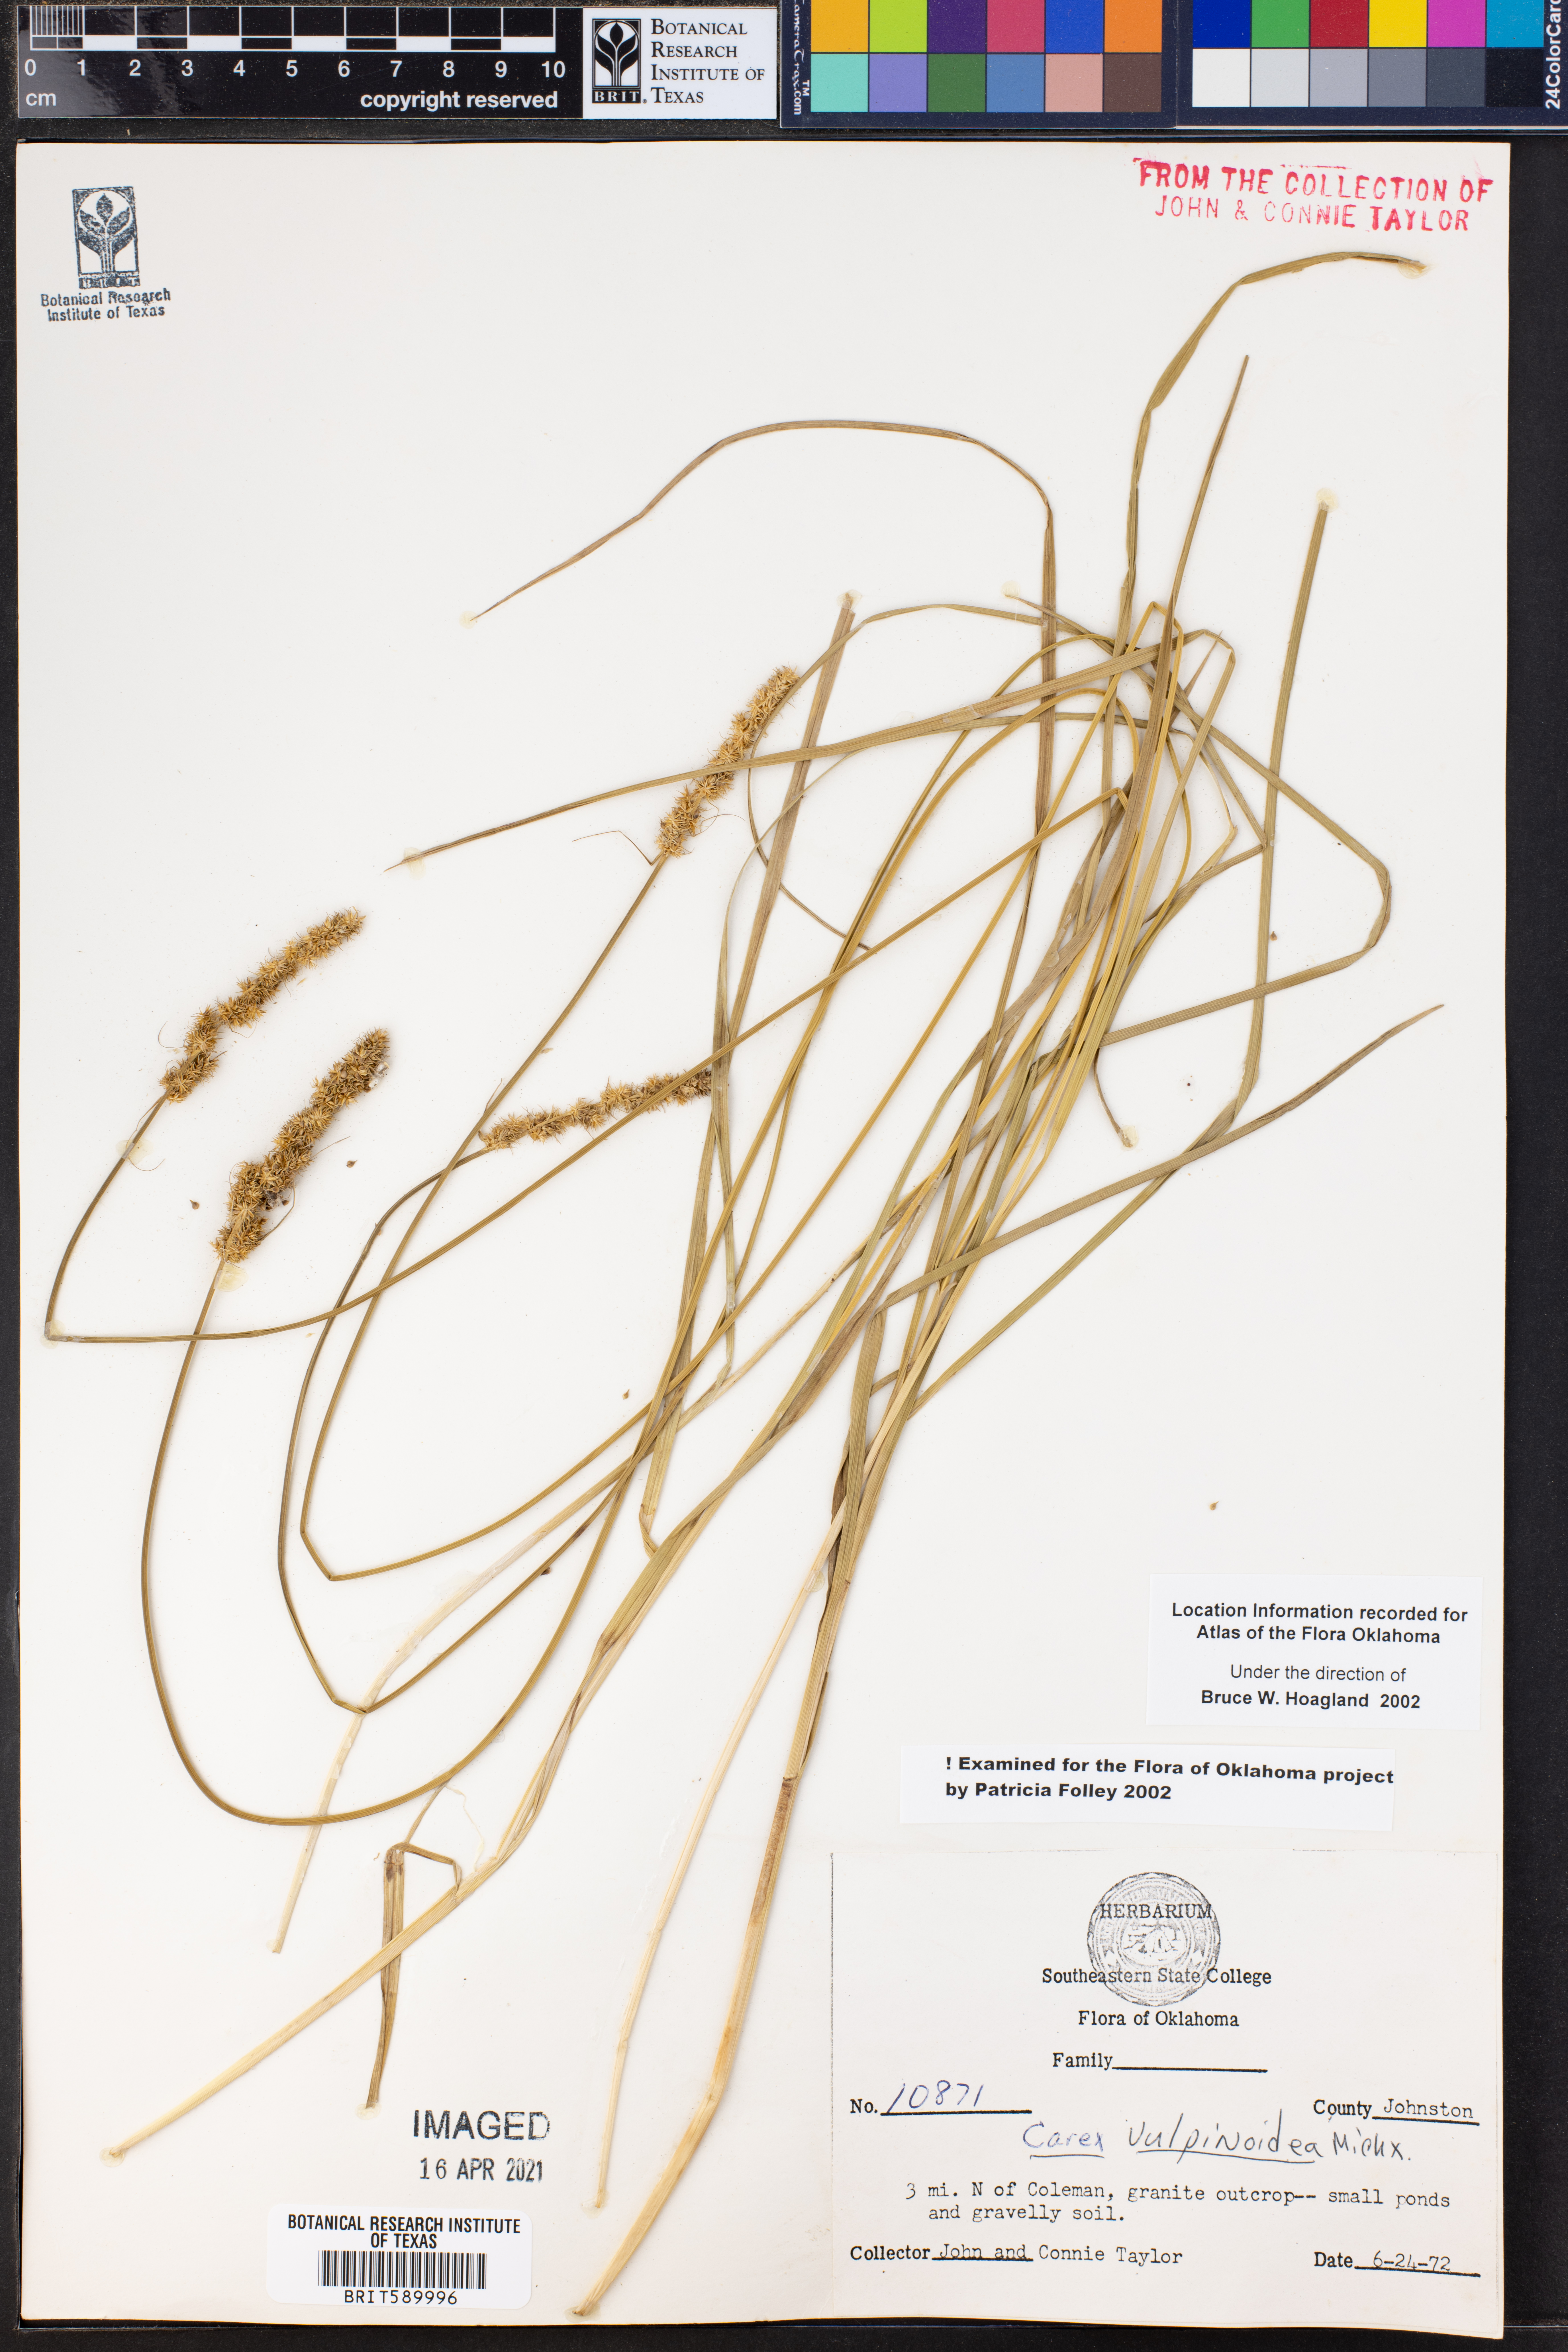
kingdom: Plantae
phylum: Tracheophyta
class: Liliopsida
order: Poales
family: Cyperaceae
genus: Carex
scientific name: Carex vulpinoidea
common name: American fox-sedge
